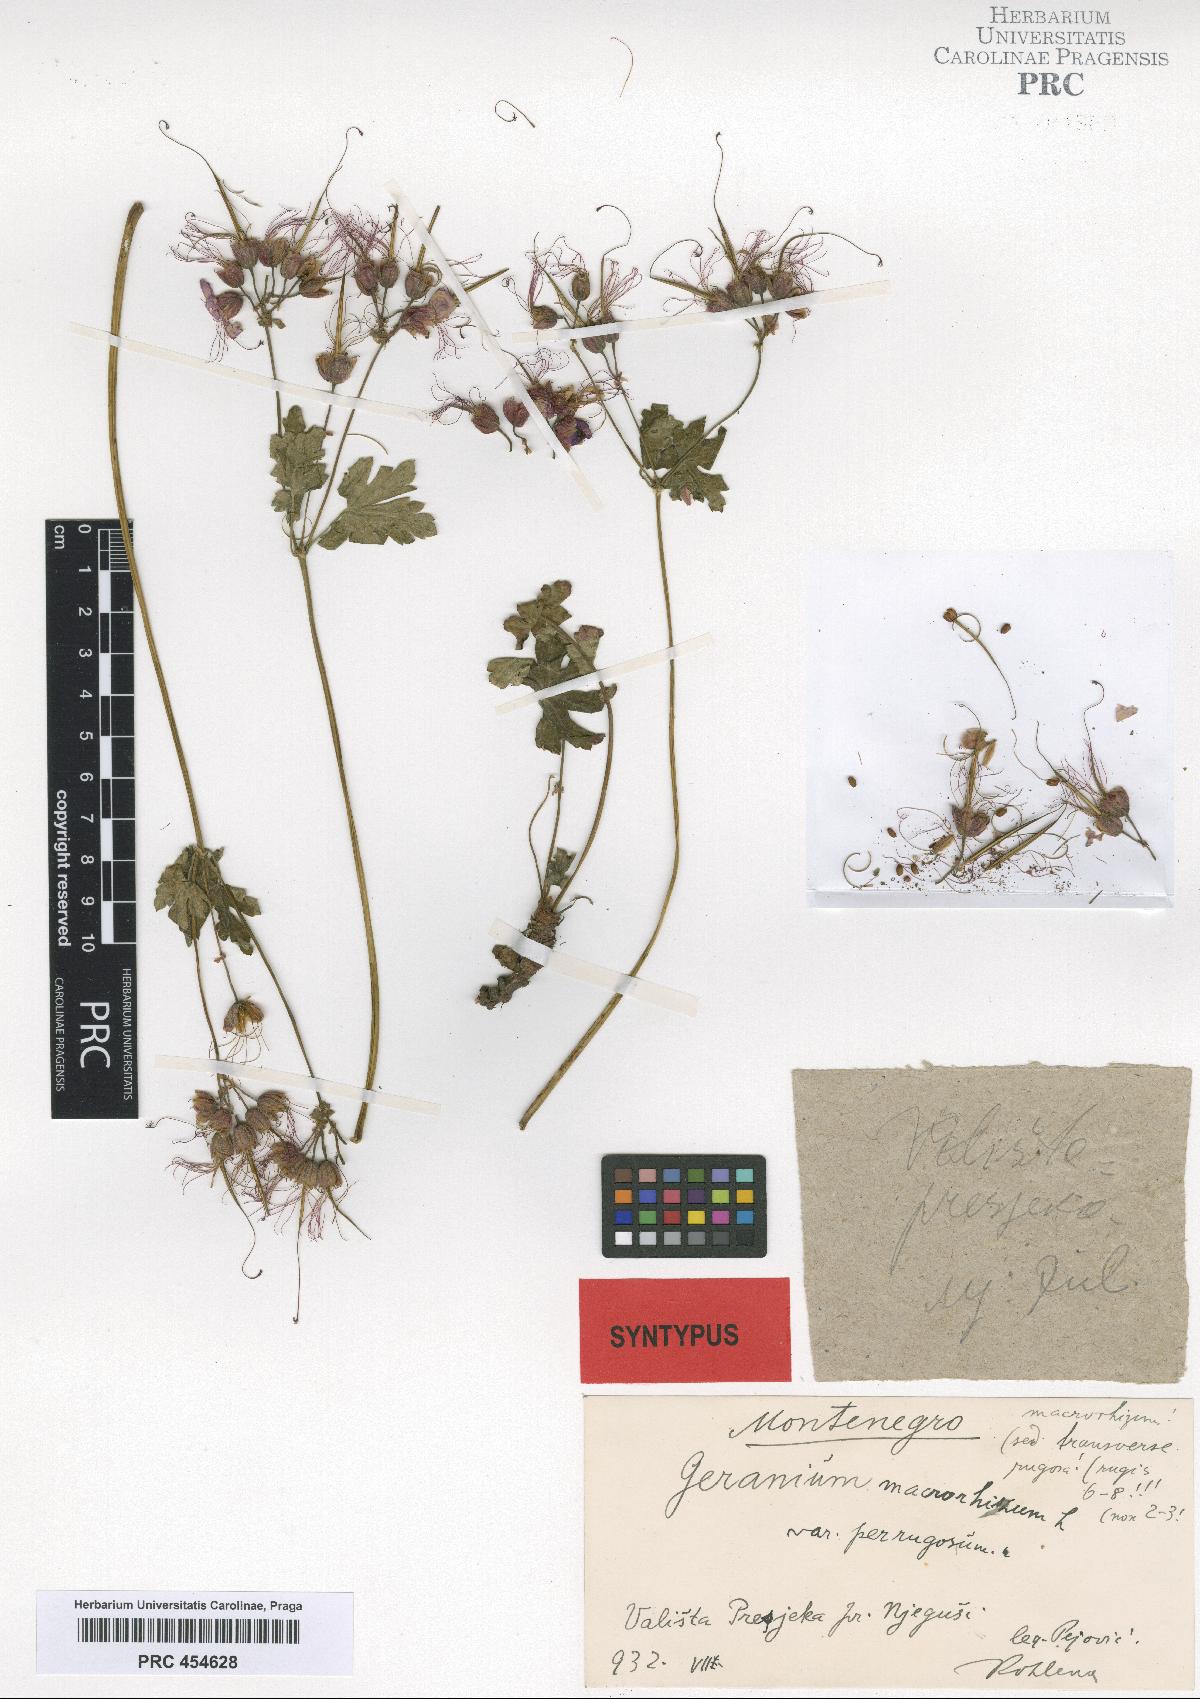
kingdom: Plantae
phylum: Tracheophyta
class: Magnoliopsida
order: Geraniales
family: Geraniaceae
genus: Geranium
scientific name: Geranium macrorrhizum
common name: Rock crane's-bill
